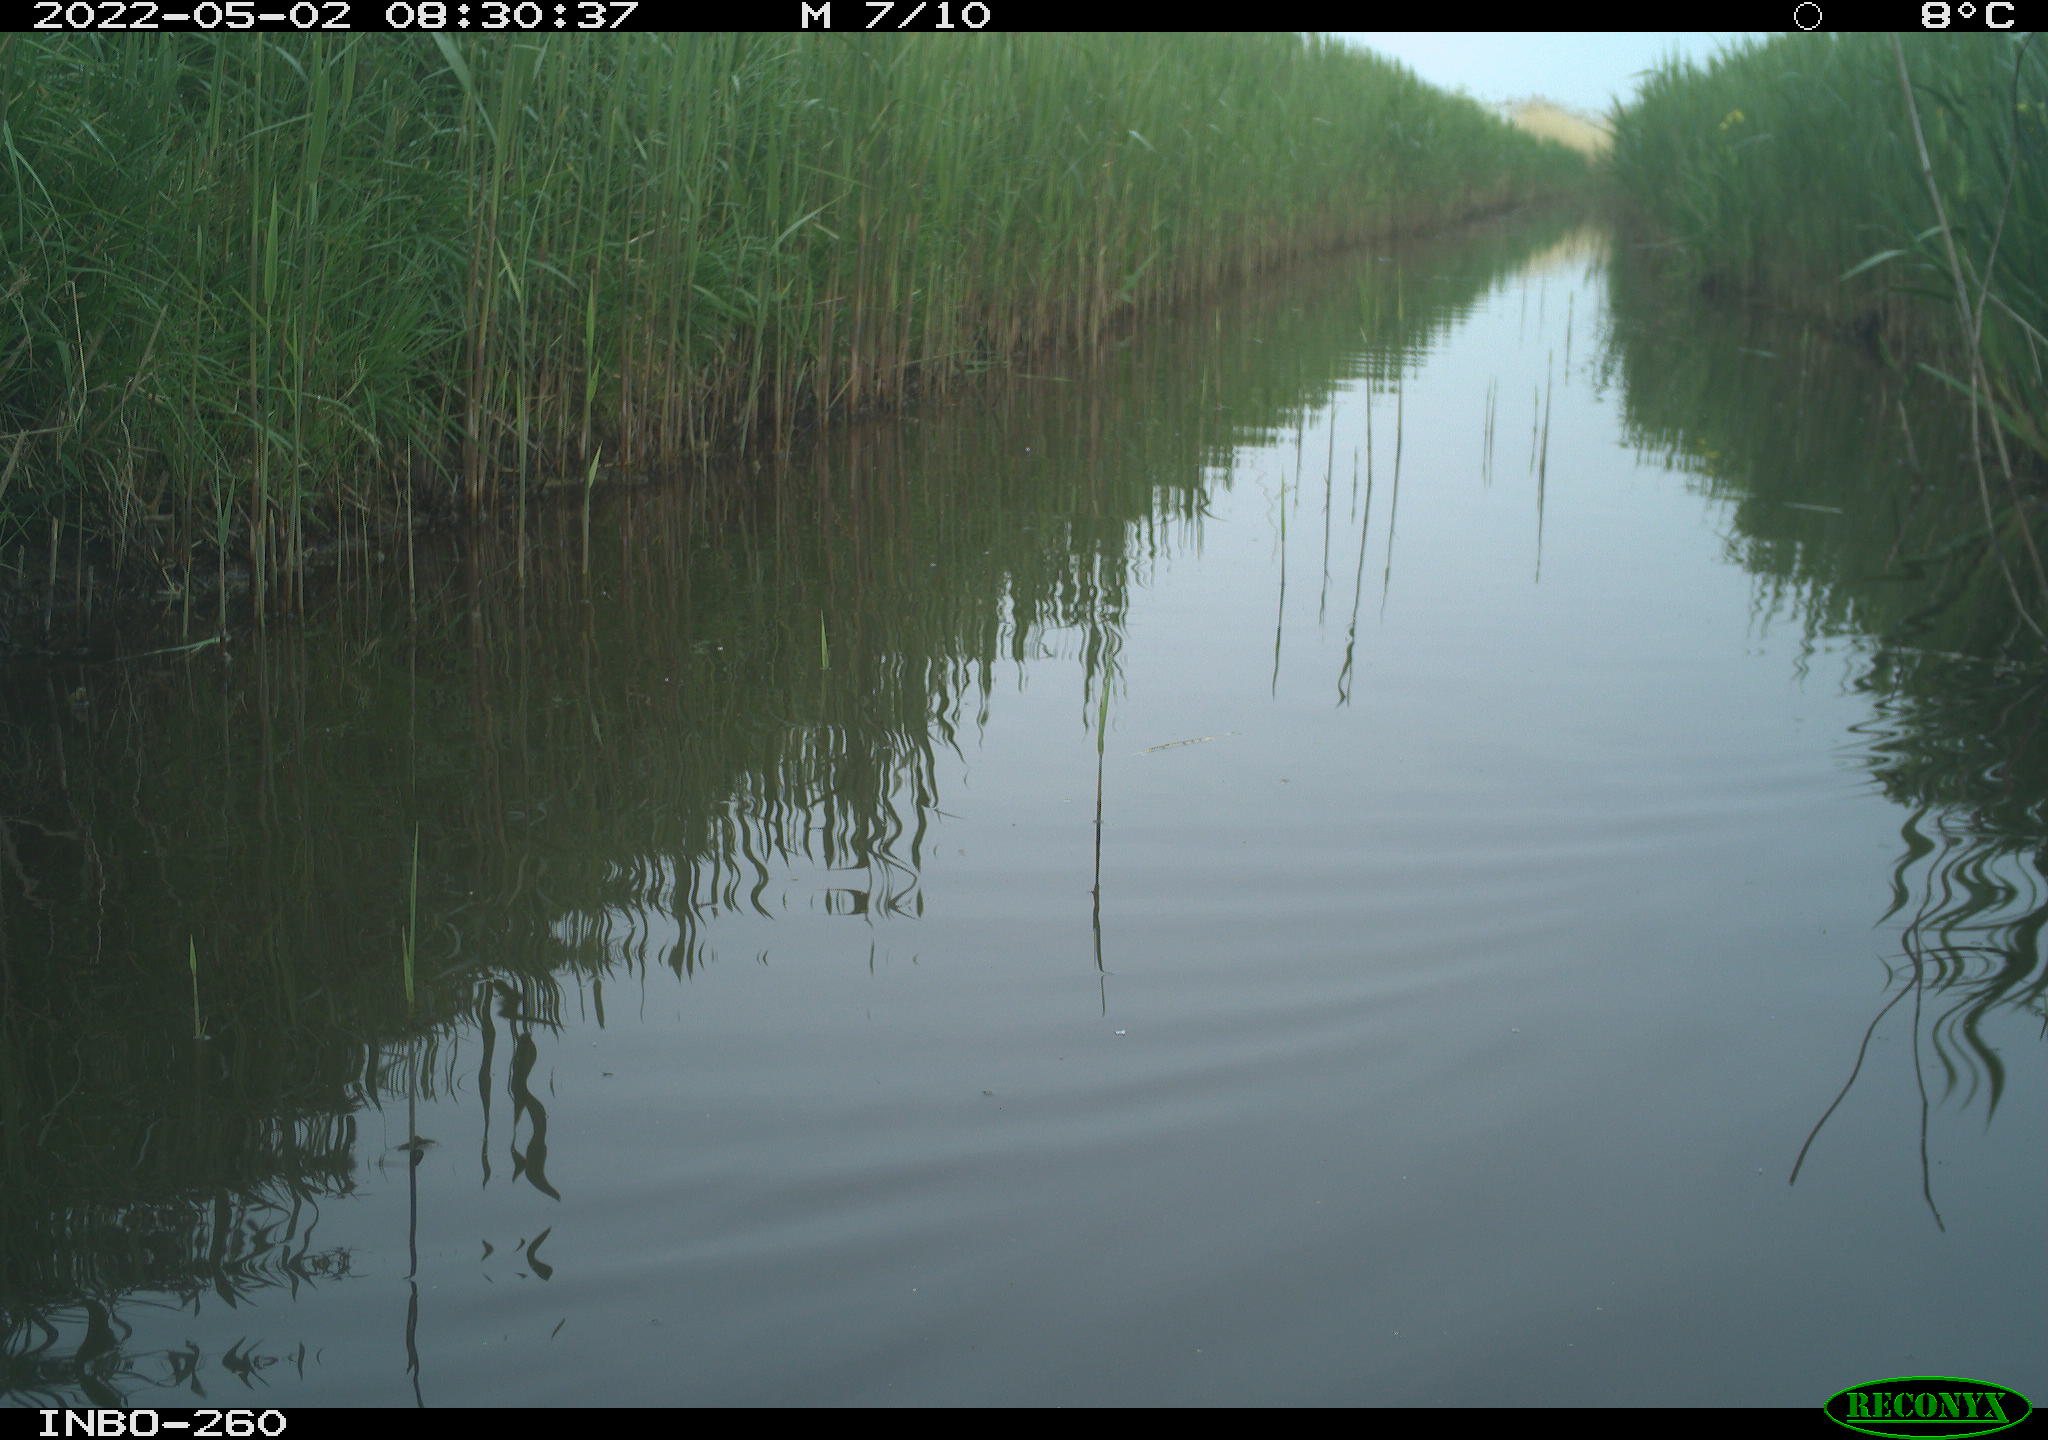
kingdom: Animalia
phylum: Chordata
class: Aves
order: Gruiformes
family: Rallidae
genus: Fulica
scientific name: Fulica atra
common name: Eurasian coot
